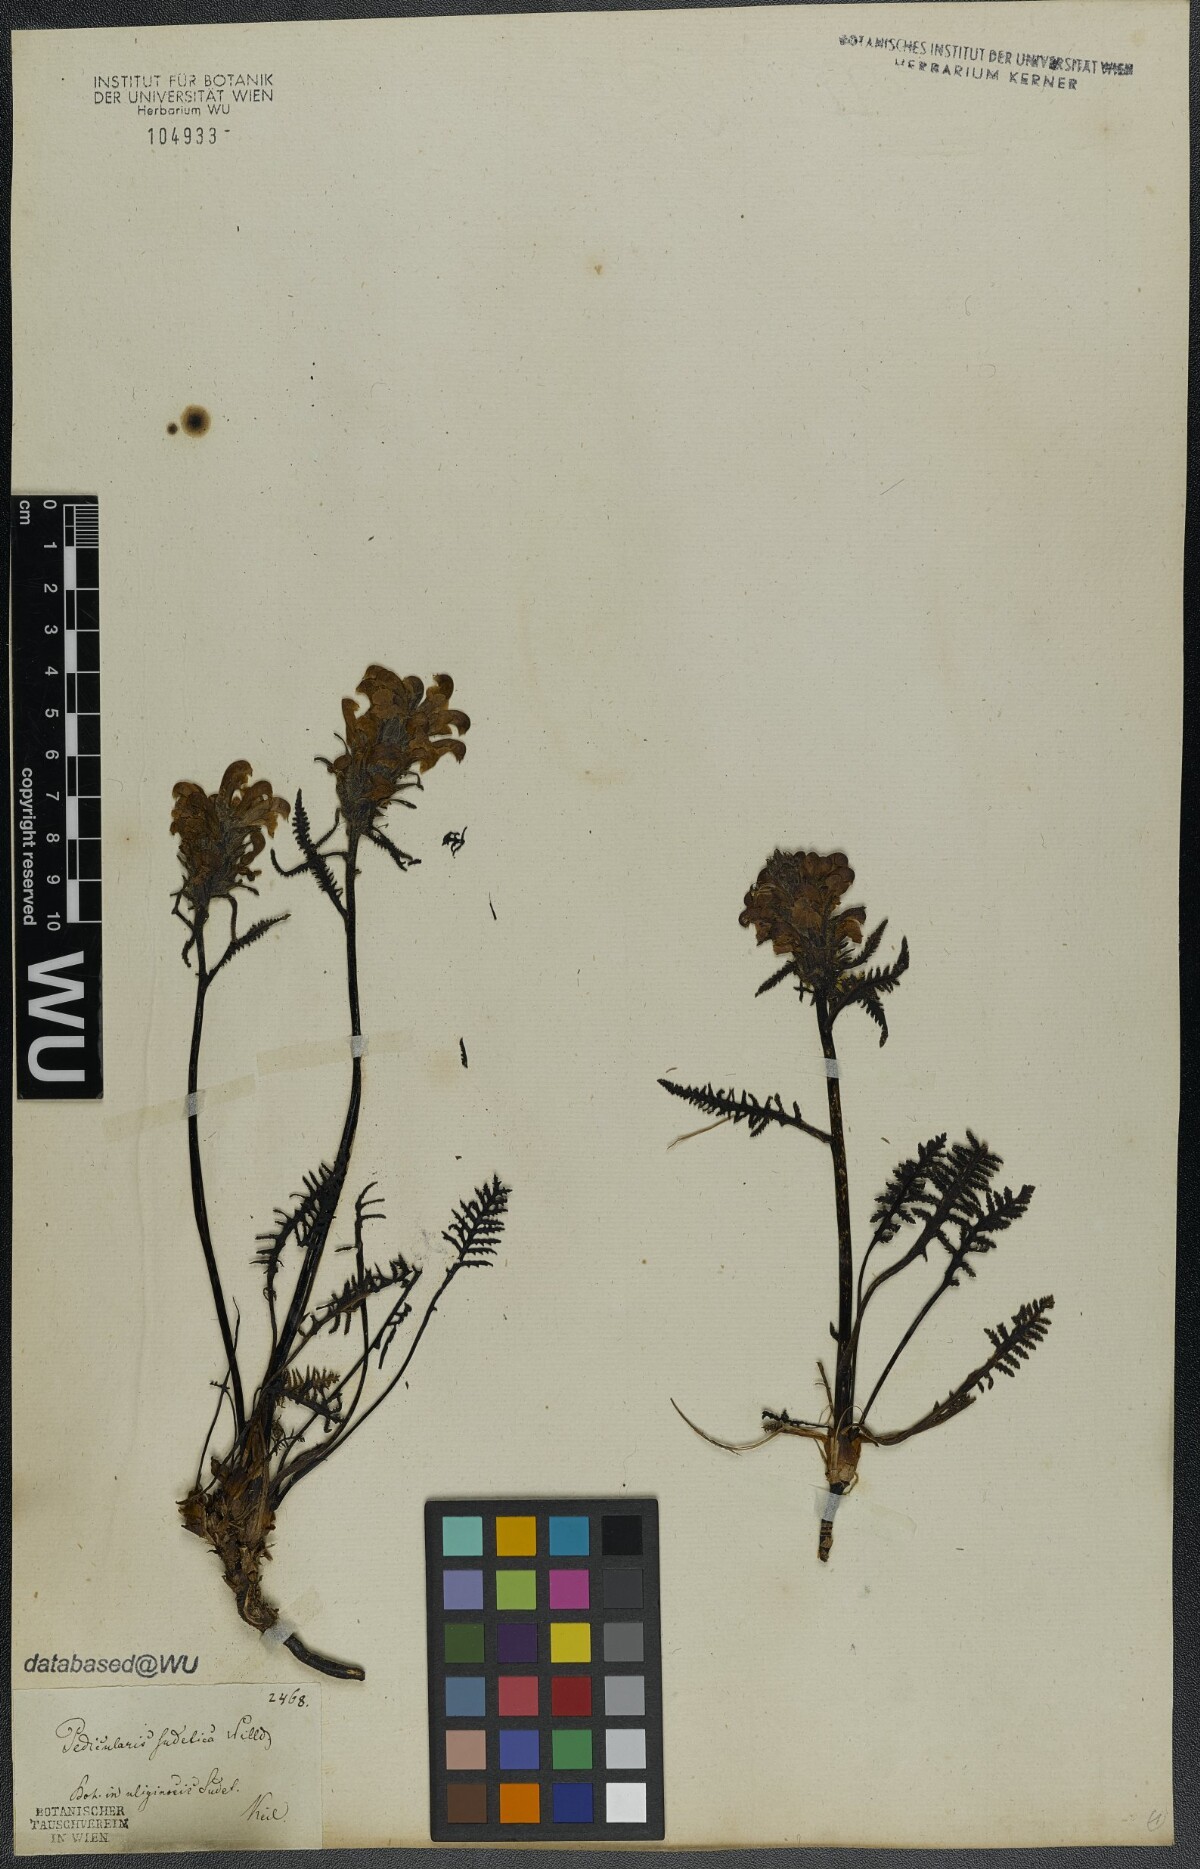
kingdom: Plantae
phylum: Tracheophyta
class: Magnoliopsida
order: Lamiales
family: Orobanchaceae
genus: Pedicularis
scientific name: Pedicularis sudetica
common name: Sudeten lousewort
